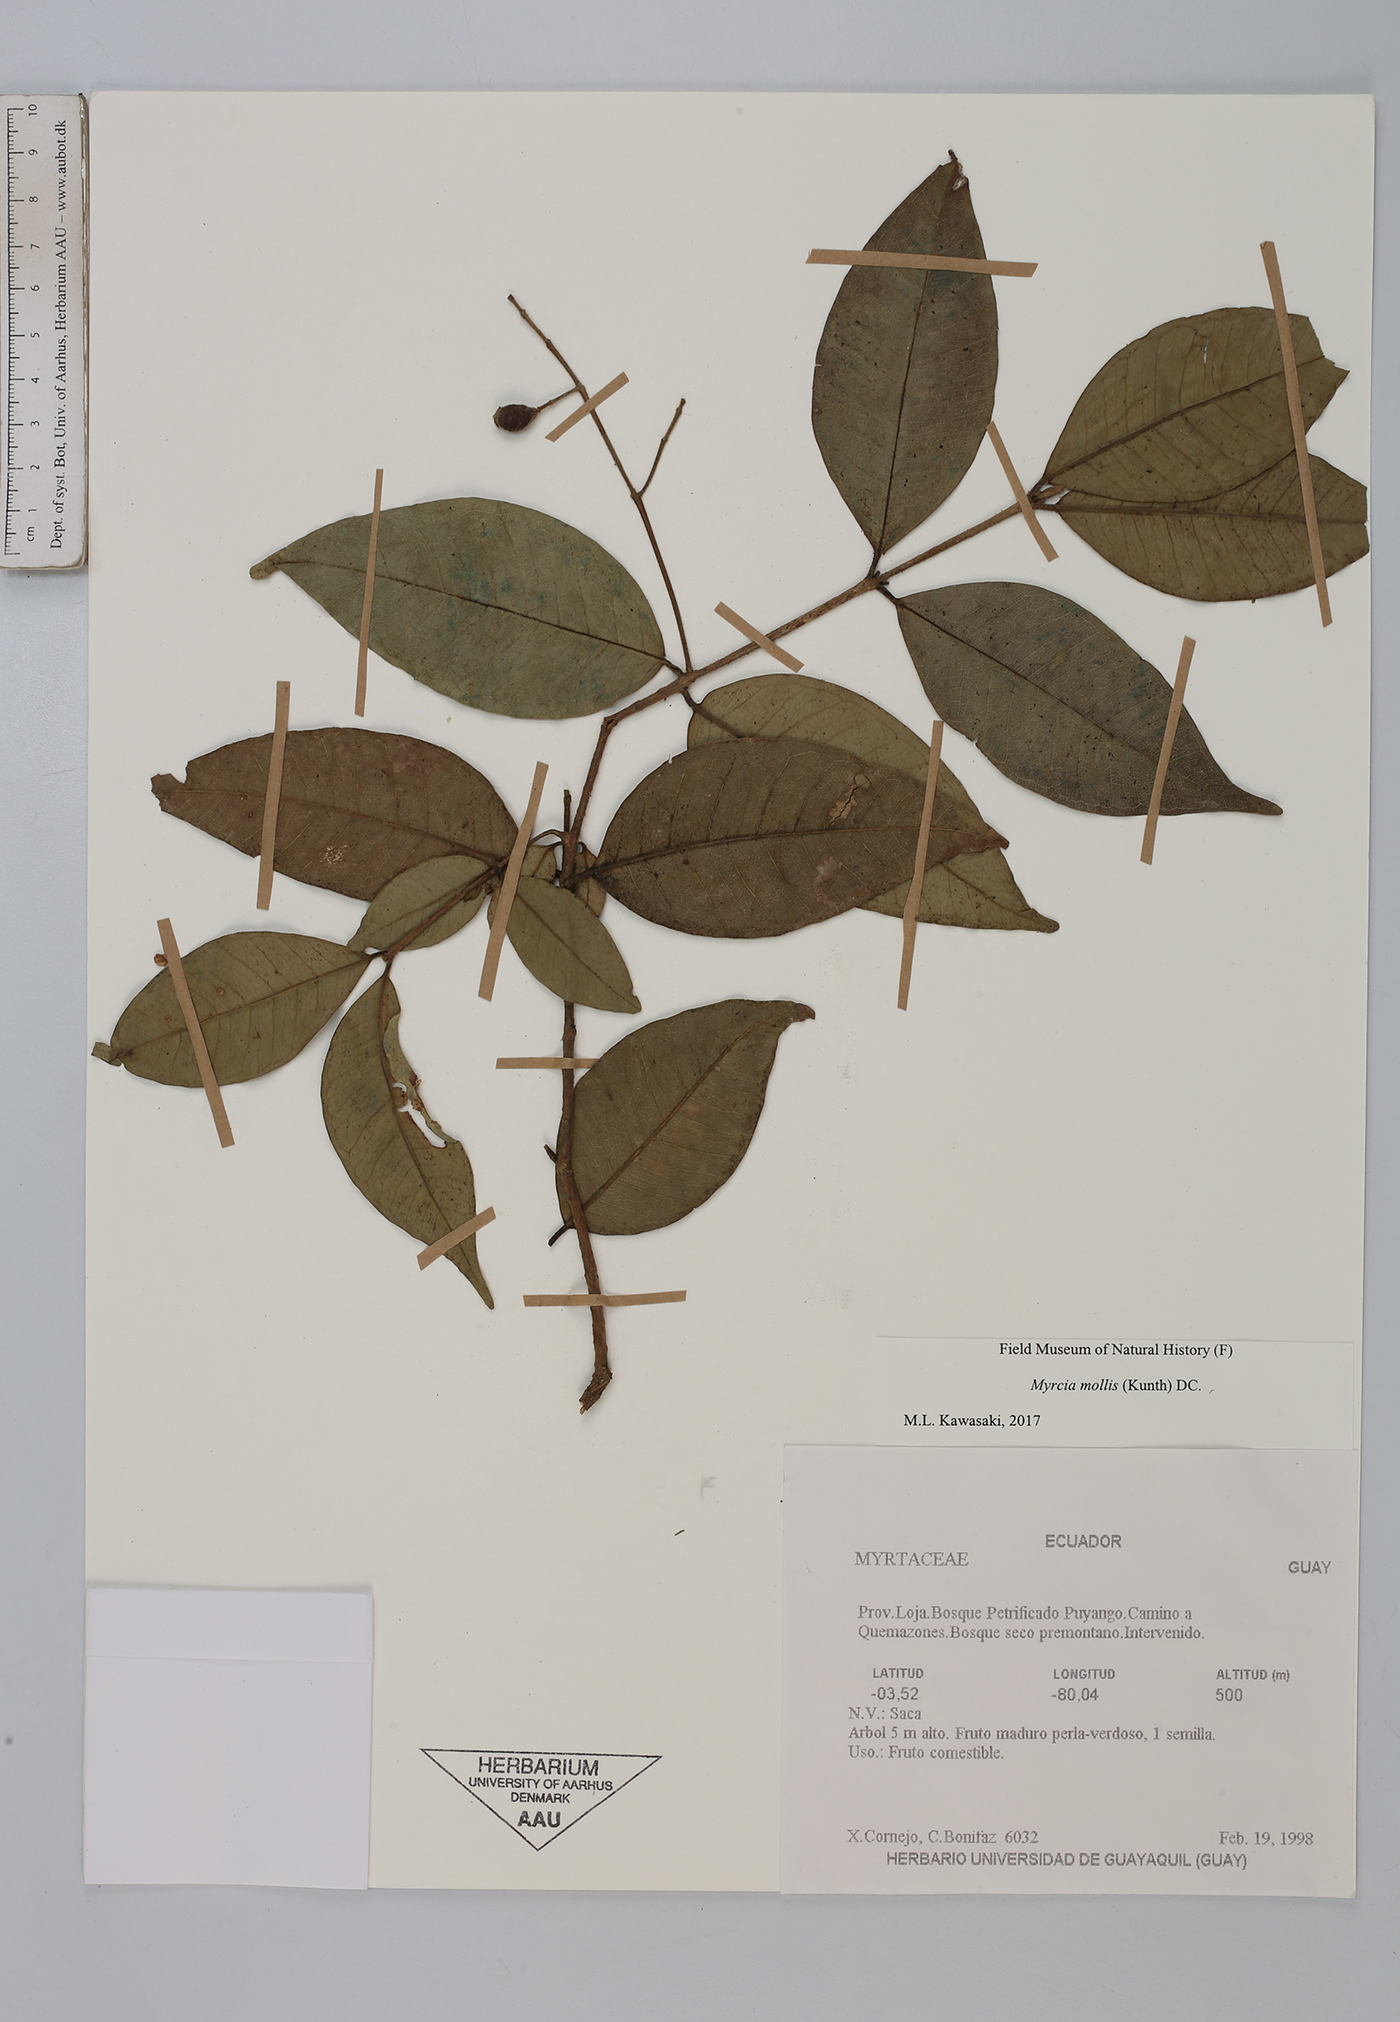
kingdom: Plantae
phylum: Tracheophyta
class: Magnoliopsida
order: Myrtales
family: Myrtaceae
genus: Myrcia
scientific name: Myrcia mollis
